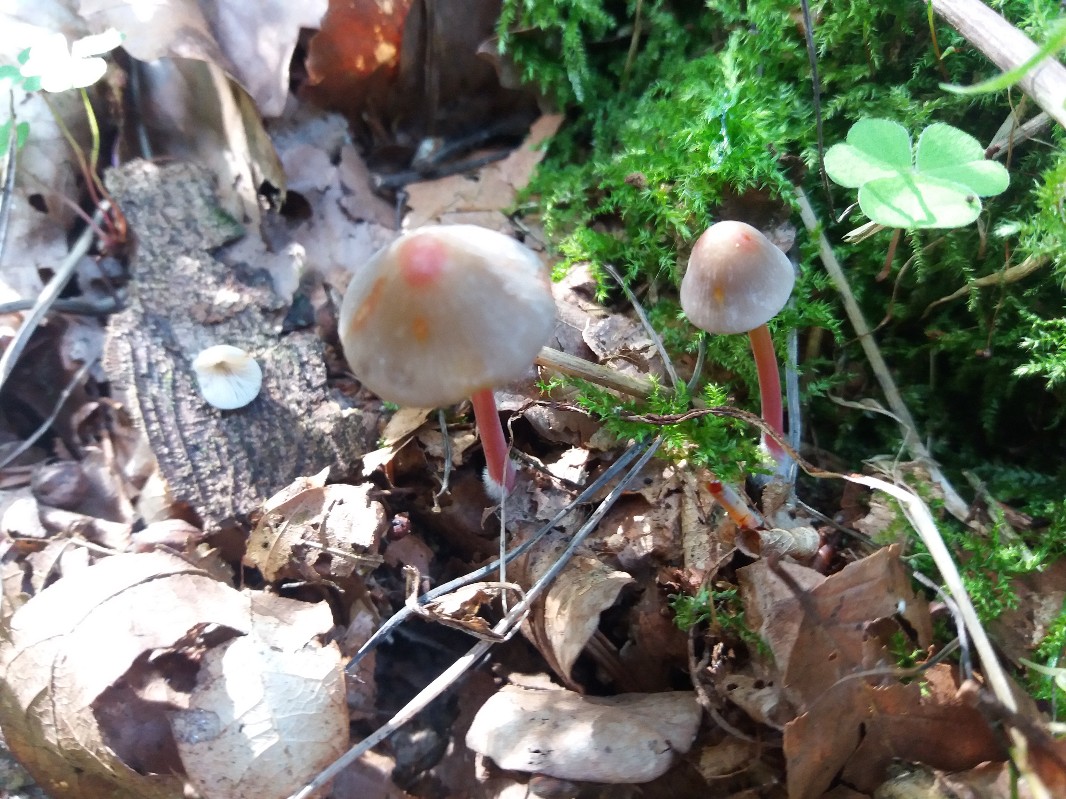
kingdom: Fungi
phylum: Basidiomycota
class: Agaricomycetes
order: Agaricales
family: Mycenaceae
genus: Mycena
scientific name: Mycena crocata
